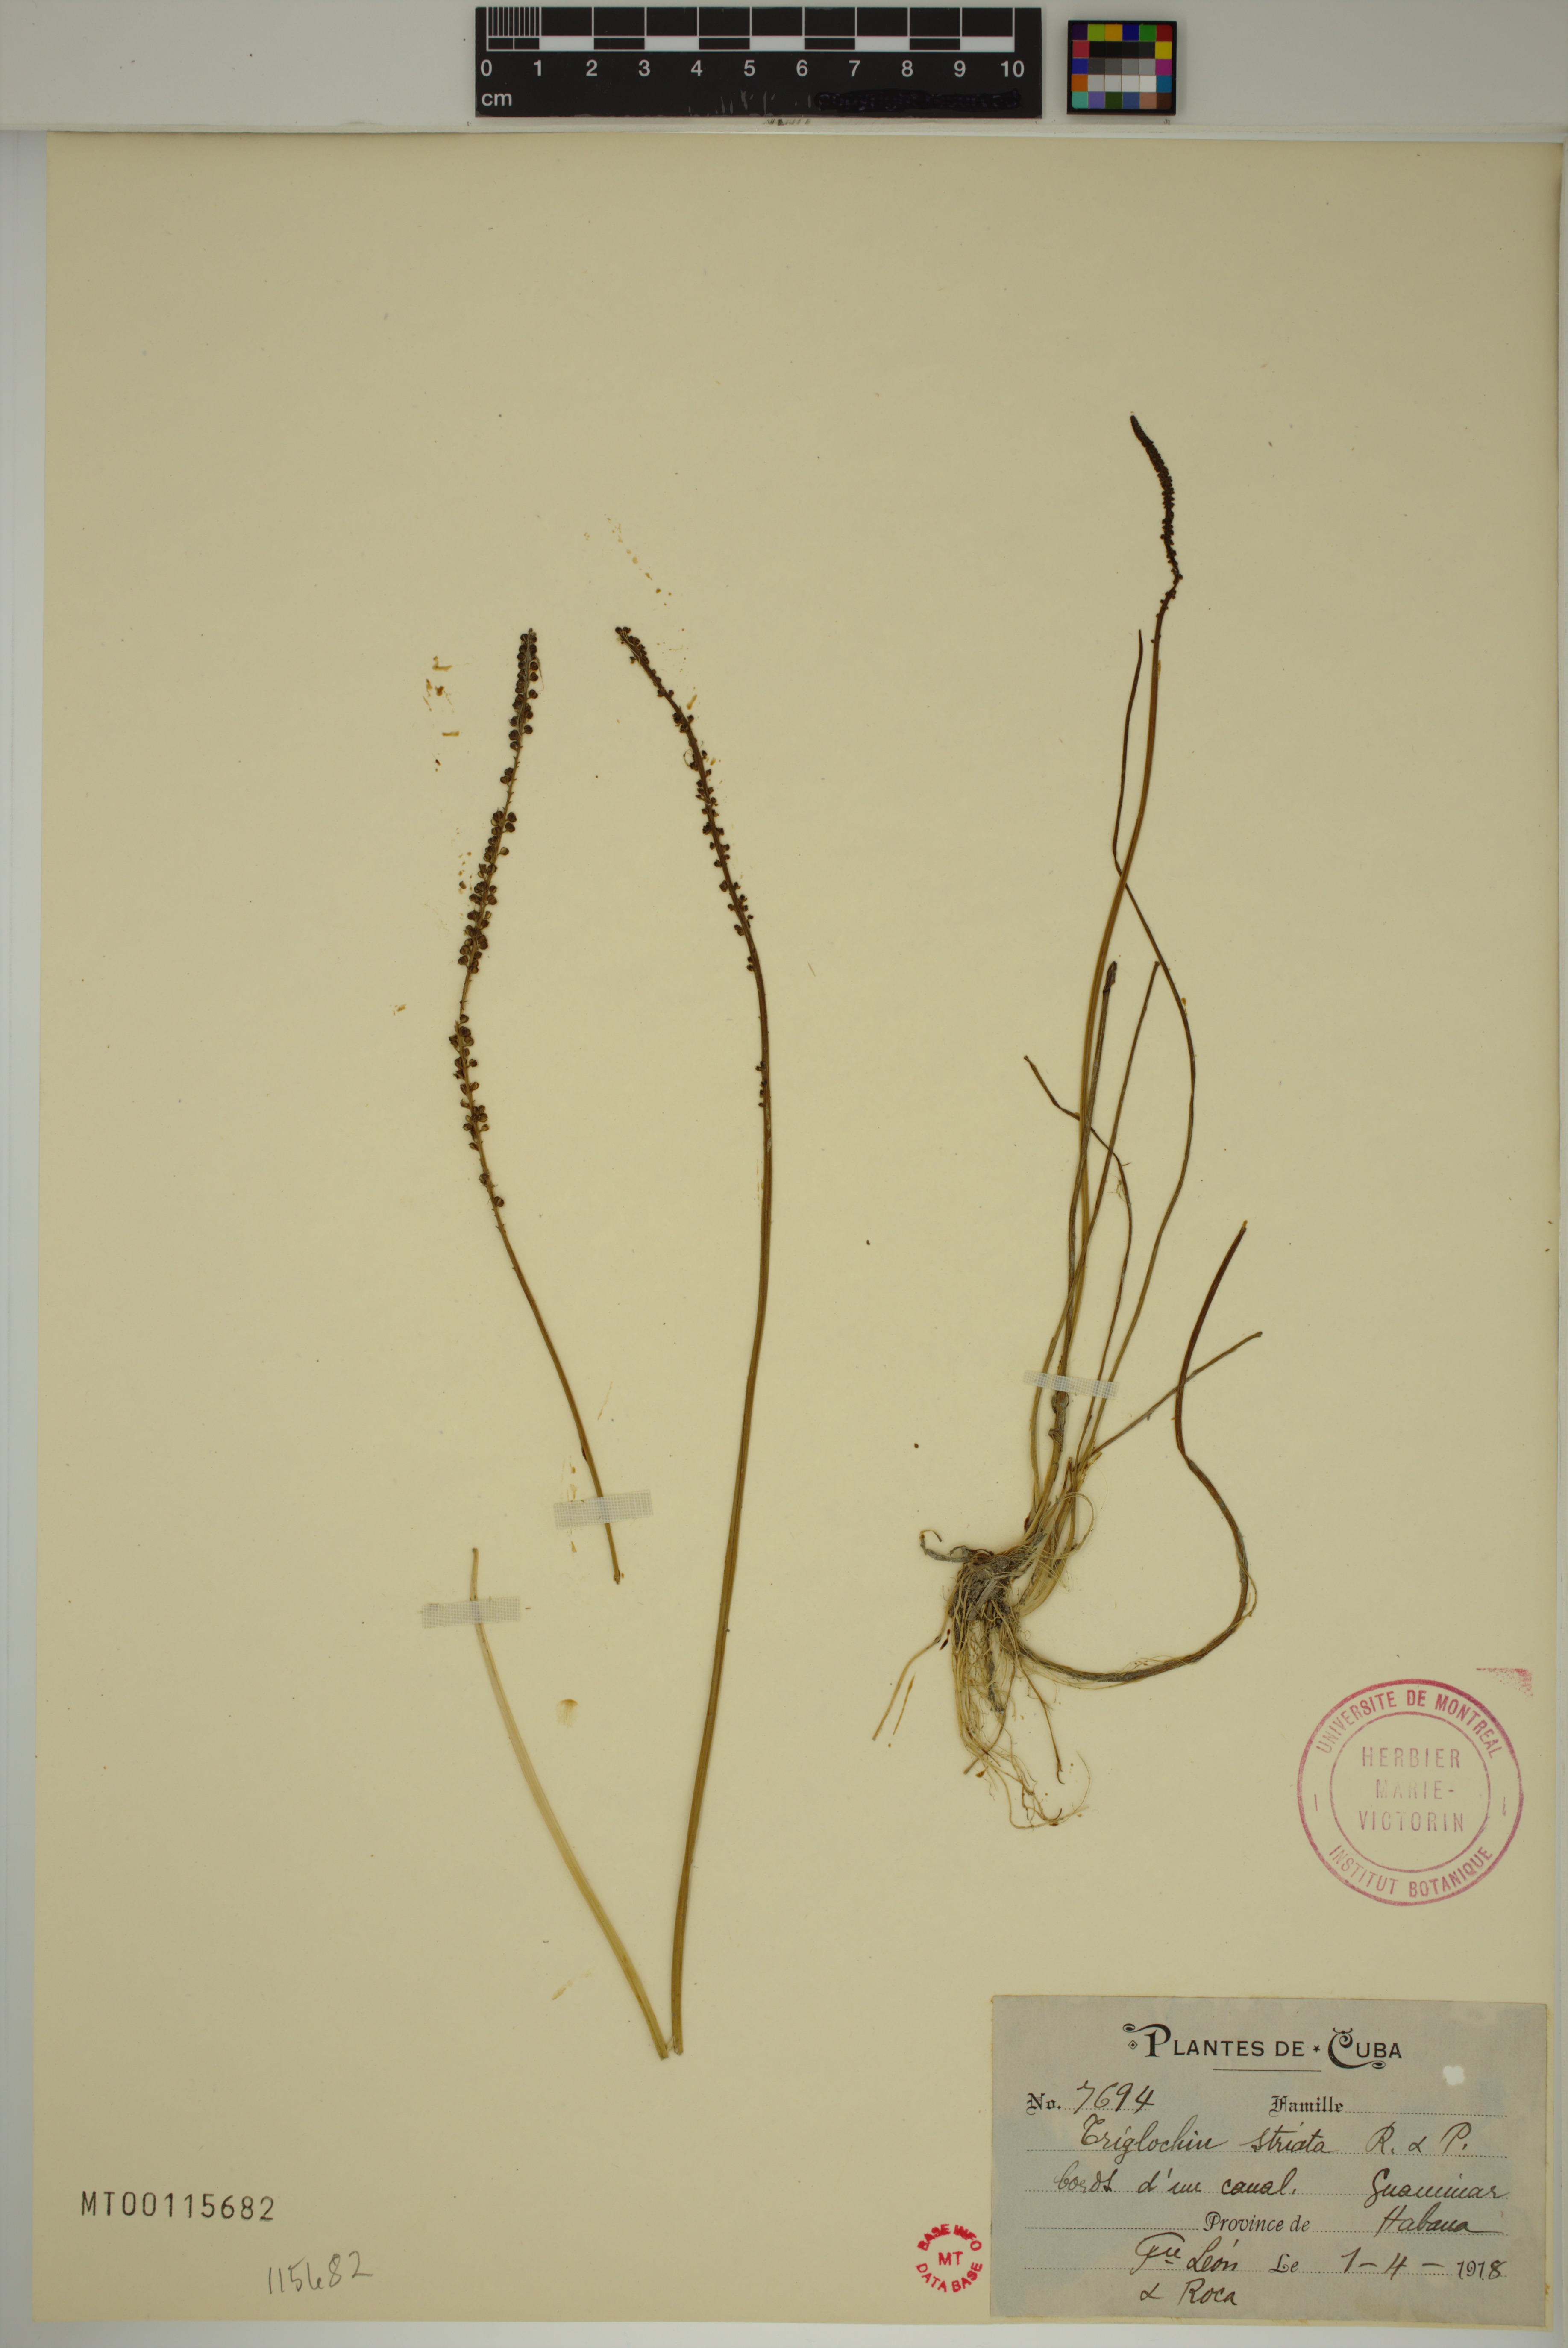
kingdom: Plantae
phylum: Tracheophyta
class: Liliopsida
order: Alismatales
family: Juncaginaceae
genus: Triglochin
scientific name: Triglochin striata
